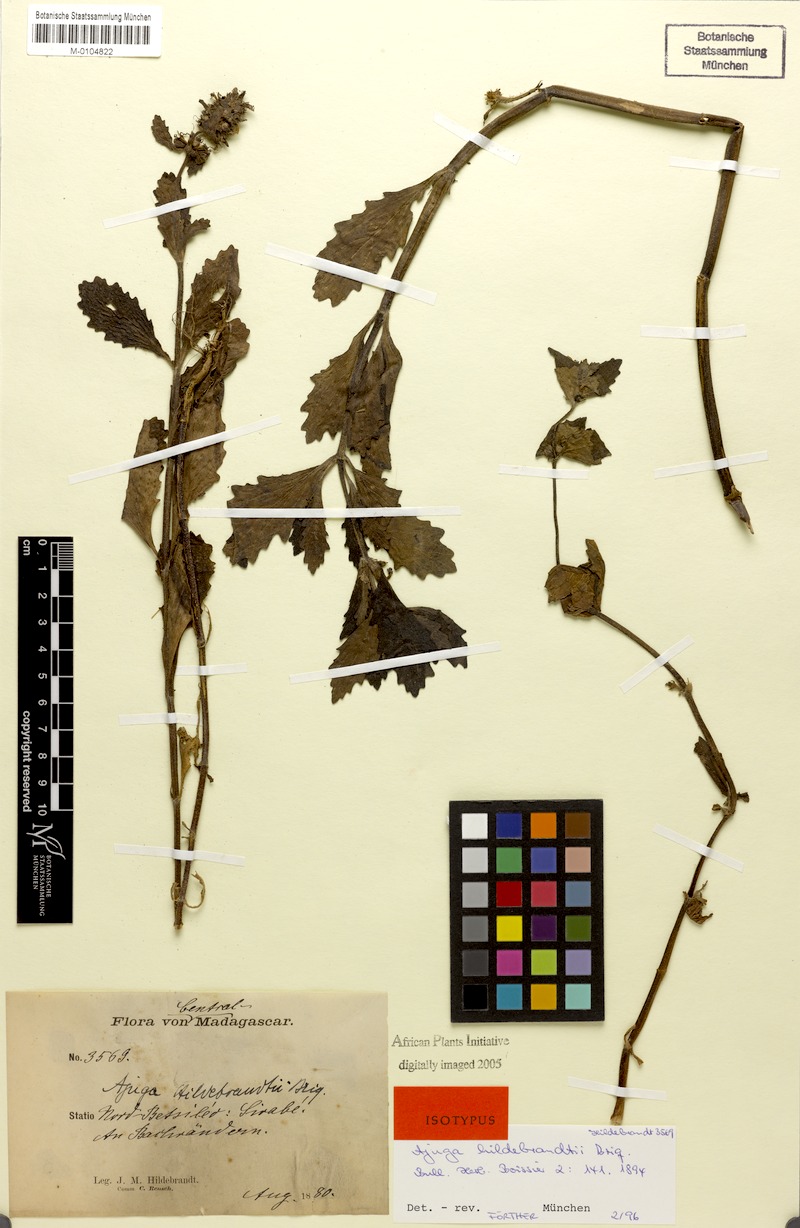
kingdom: Plantae
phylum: Tracheophyta
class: Magnoliopsida
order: Lamiales
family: Lamiaceae
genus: Ajuga
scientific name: Ajuga robusta
